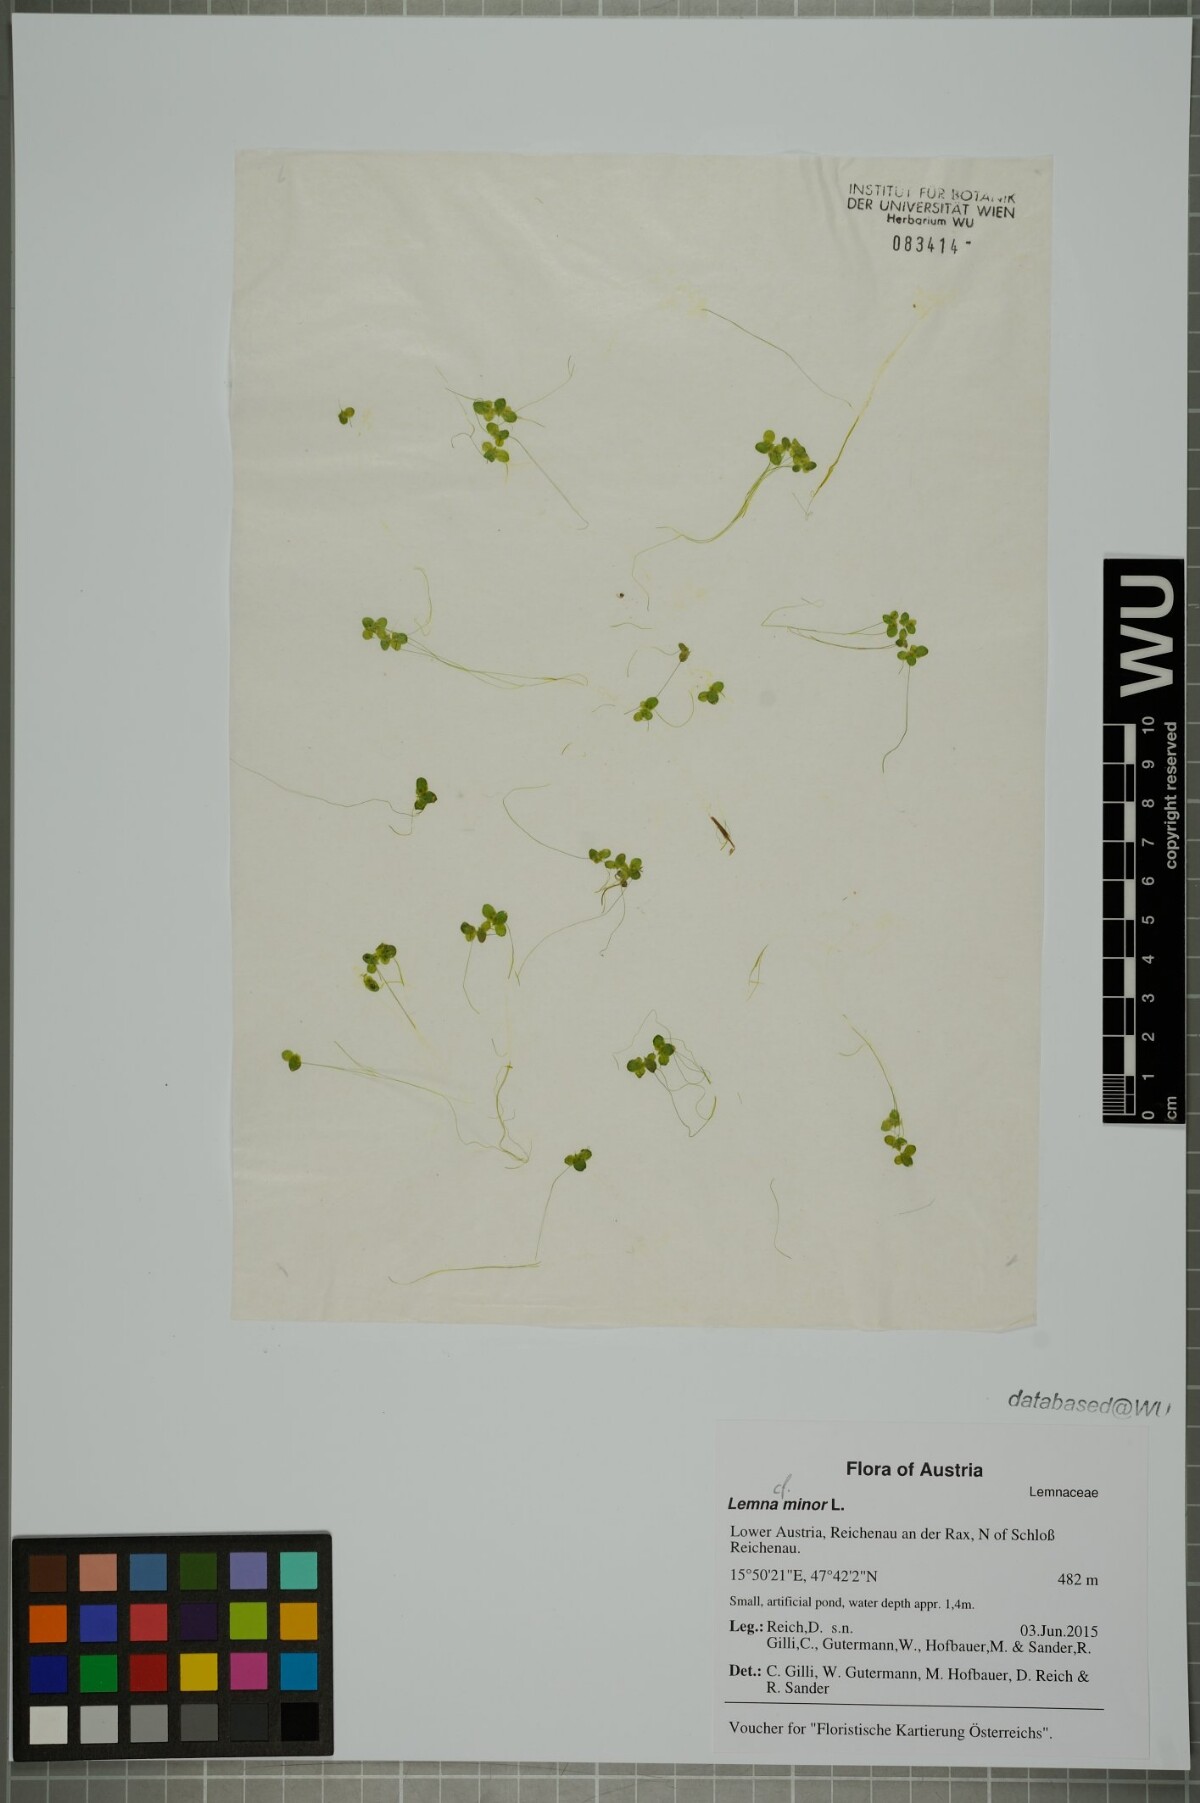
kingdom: Plantae
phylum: Tracheophyta
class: Liliopsida
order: Alismatales
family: Araceae
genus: Lemna
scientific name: Lemna minor
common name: Common duckweed
